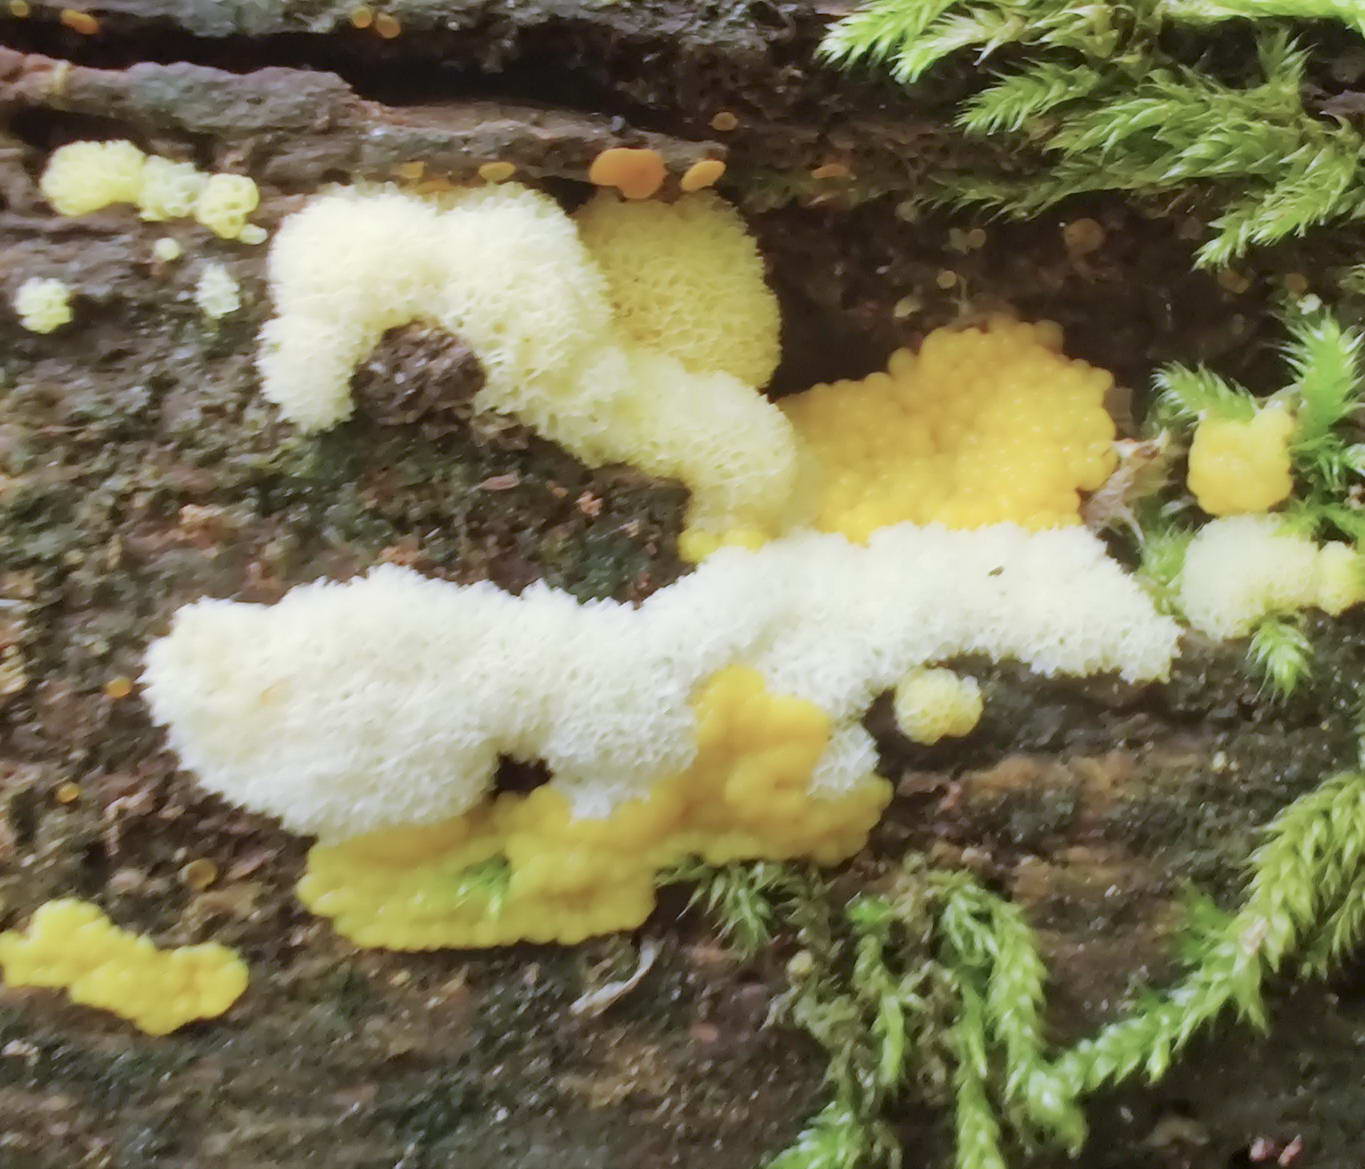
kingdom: Protozoa
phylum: Mycetozoa
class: Protosteliomycetes
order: Ceratiomyxales
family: Ceratiomyxaceae
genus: Ceratiomyxa
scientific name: Ceratiomyxa fruticulosa
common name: Honeycomb coral slime mold
